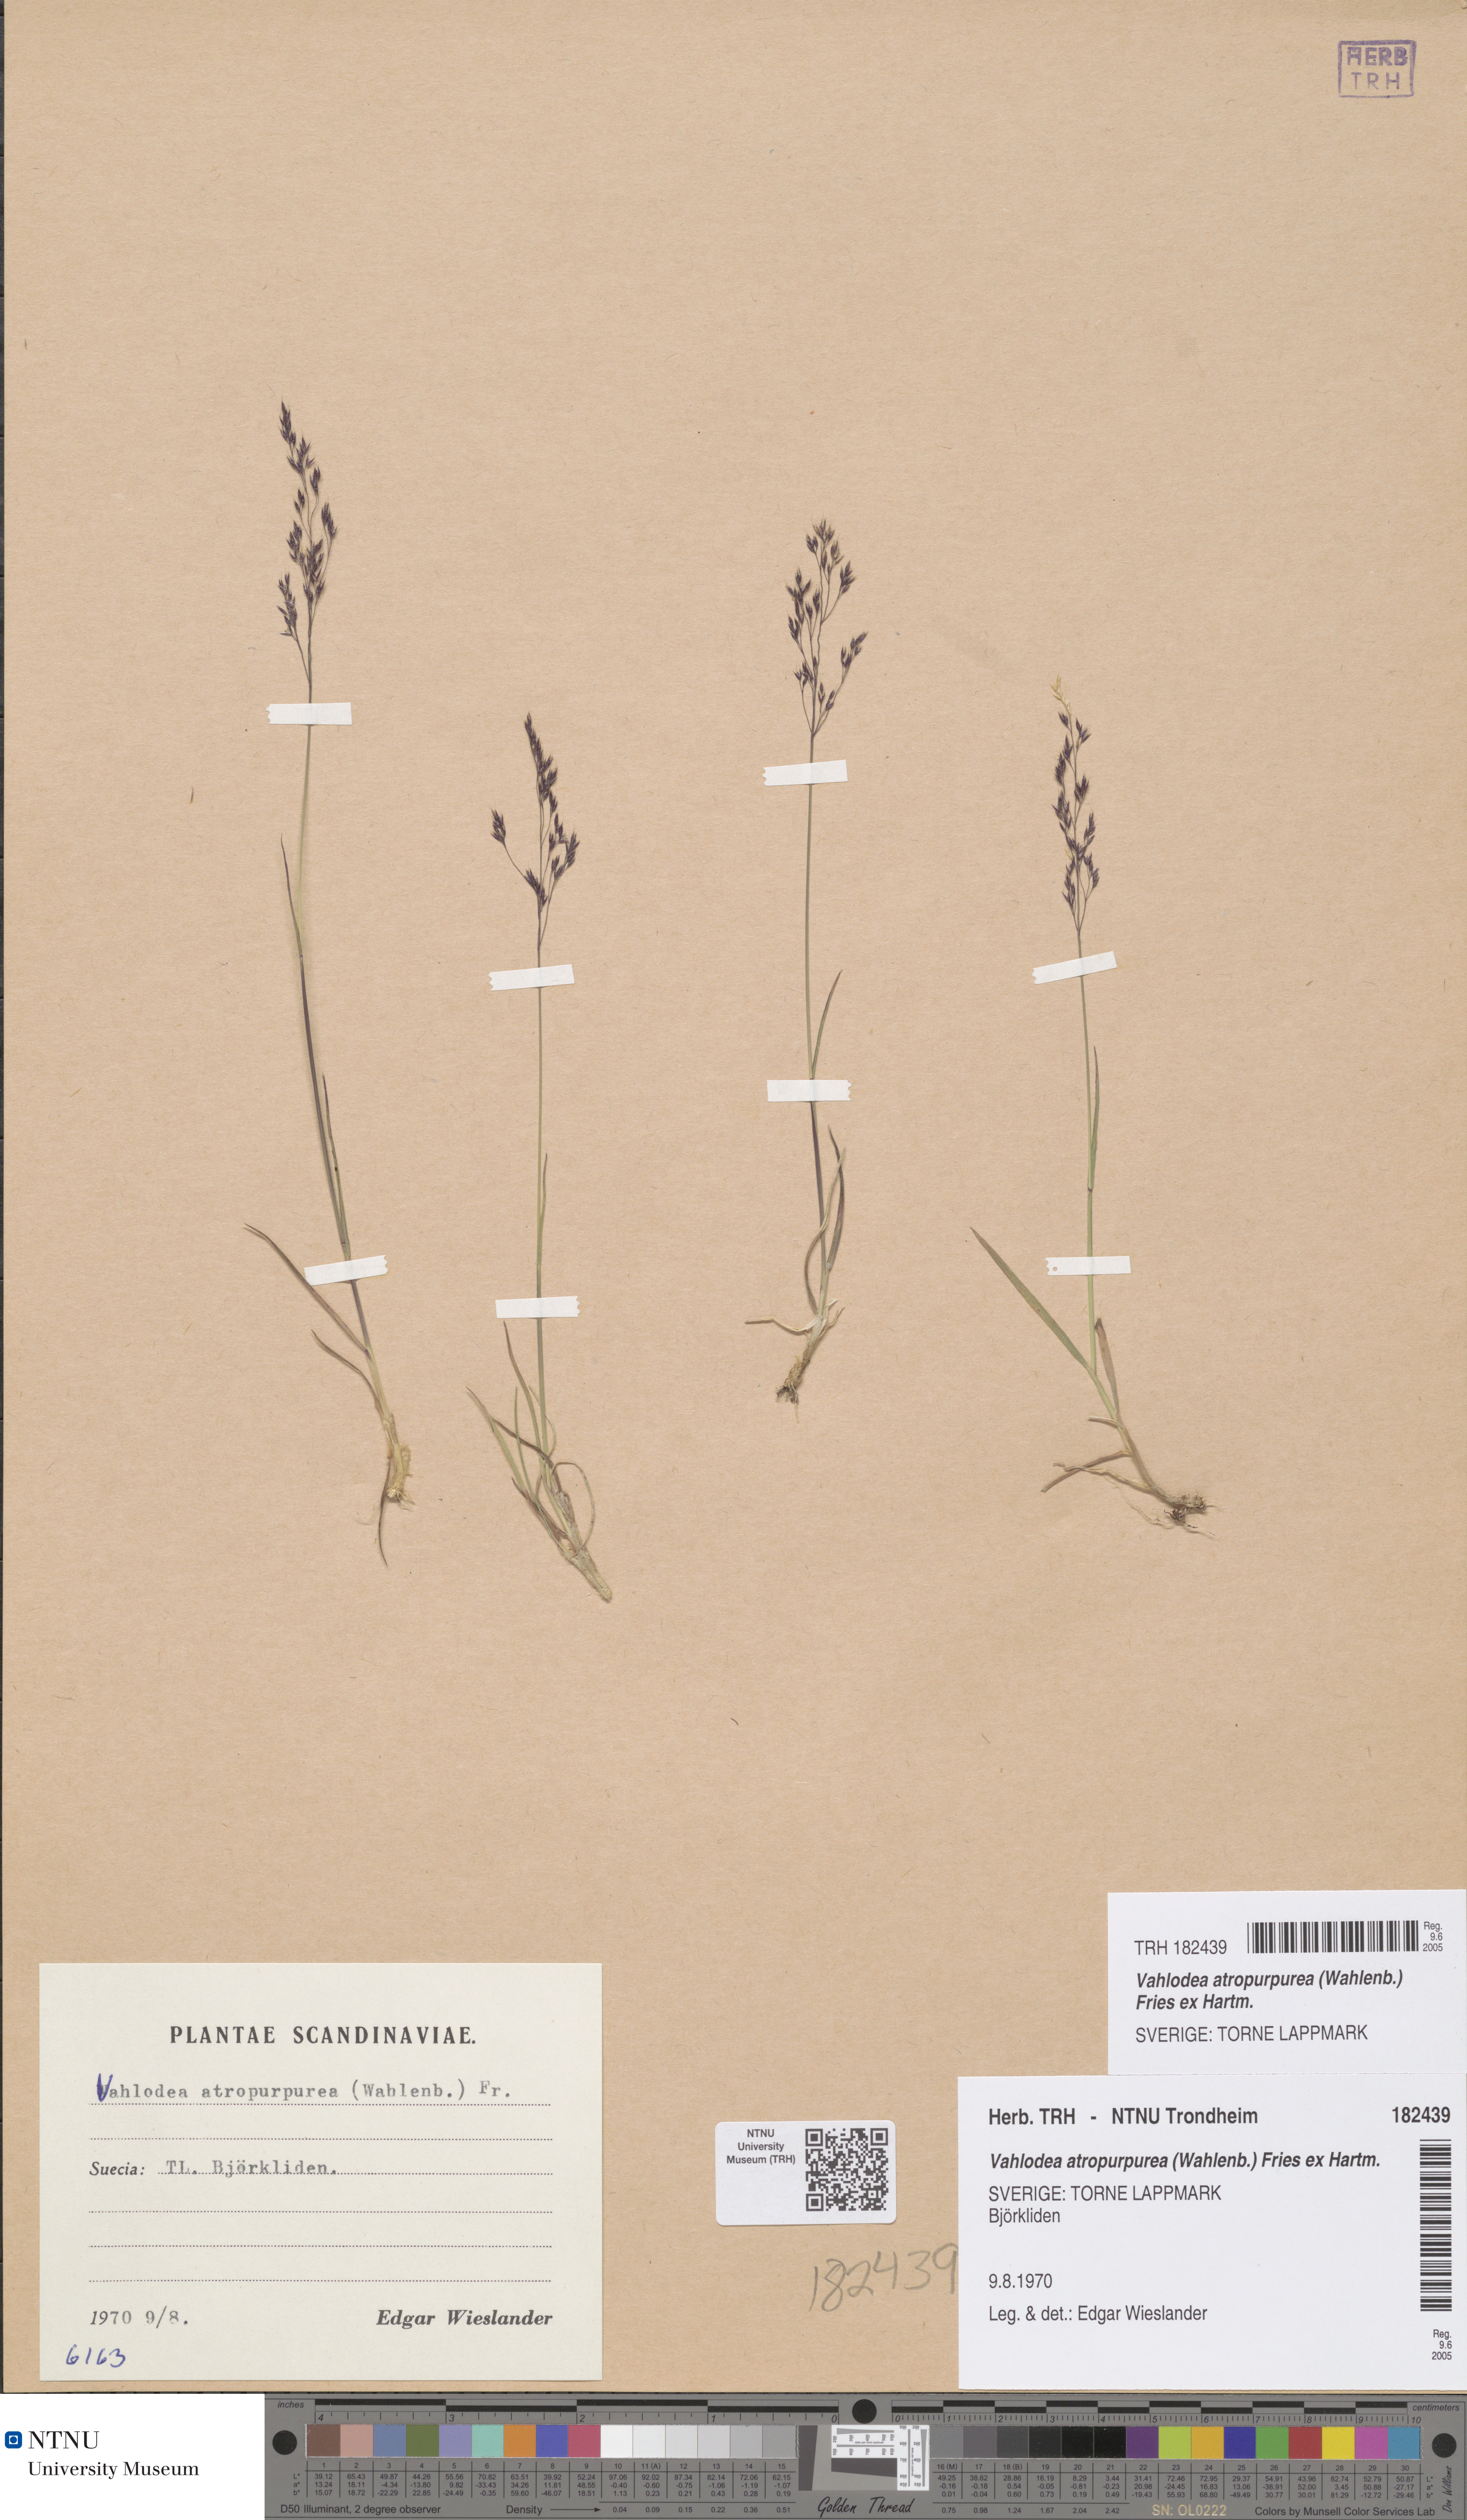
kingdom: Plantae
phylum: Tracheophyta
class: Liliopsida
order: Poales
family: Poaceae
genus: Vahlodea
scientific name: Vahlodea atropurpurea
